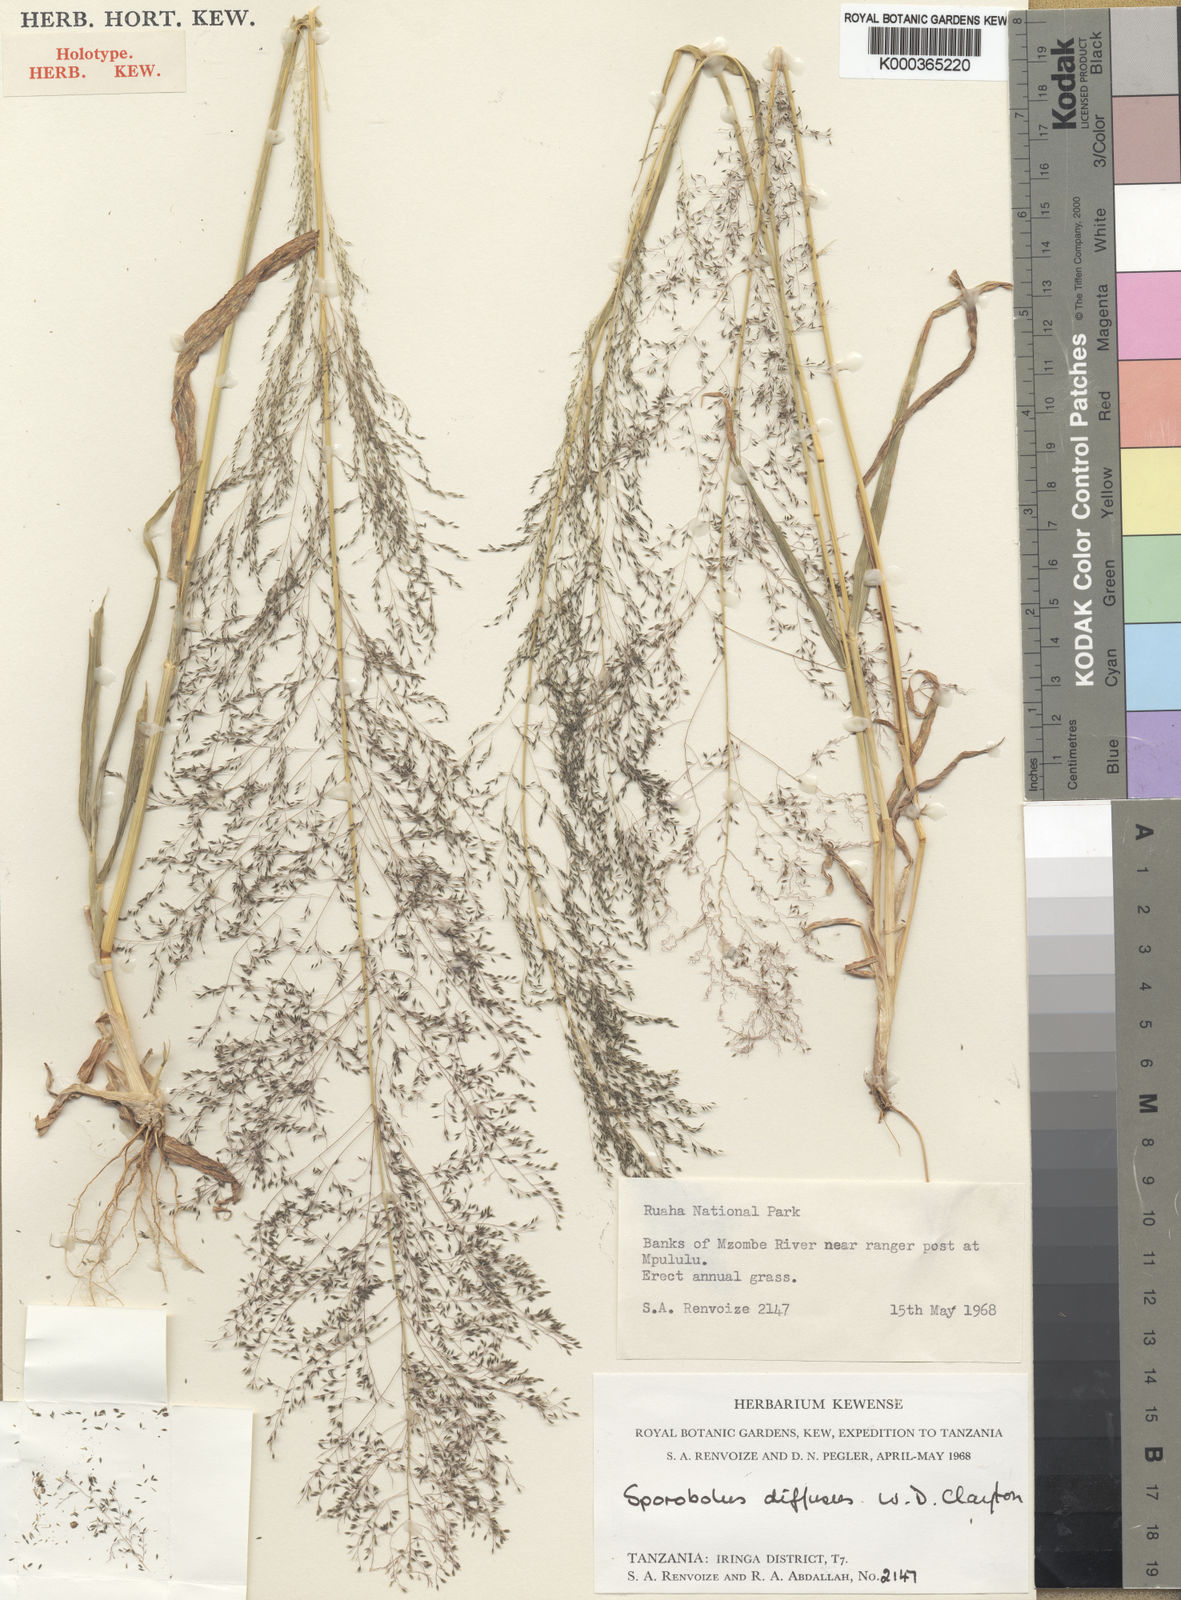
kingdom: Plantae
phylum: Tracheophyta
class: Liliopsida
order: Poales
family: Poaceae
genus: Sporobolus
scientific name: Sporobolus macranthelus
